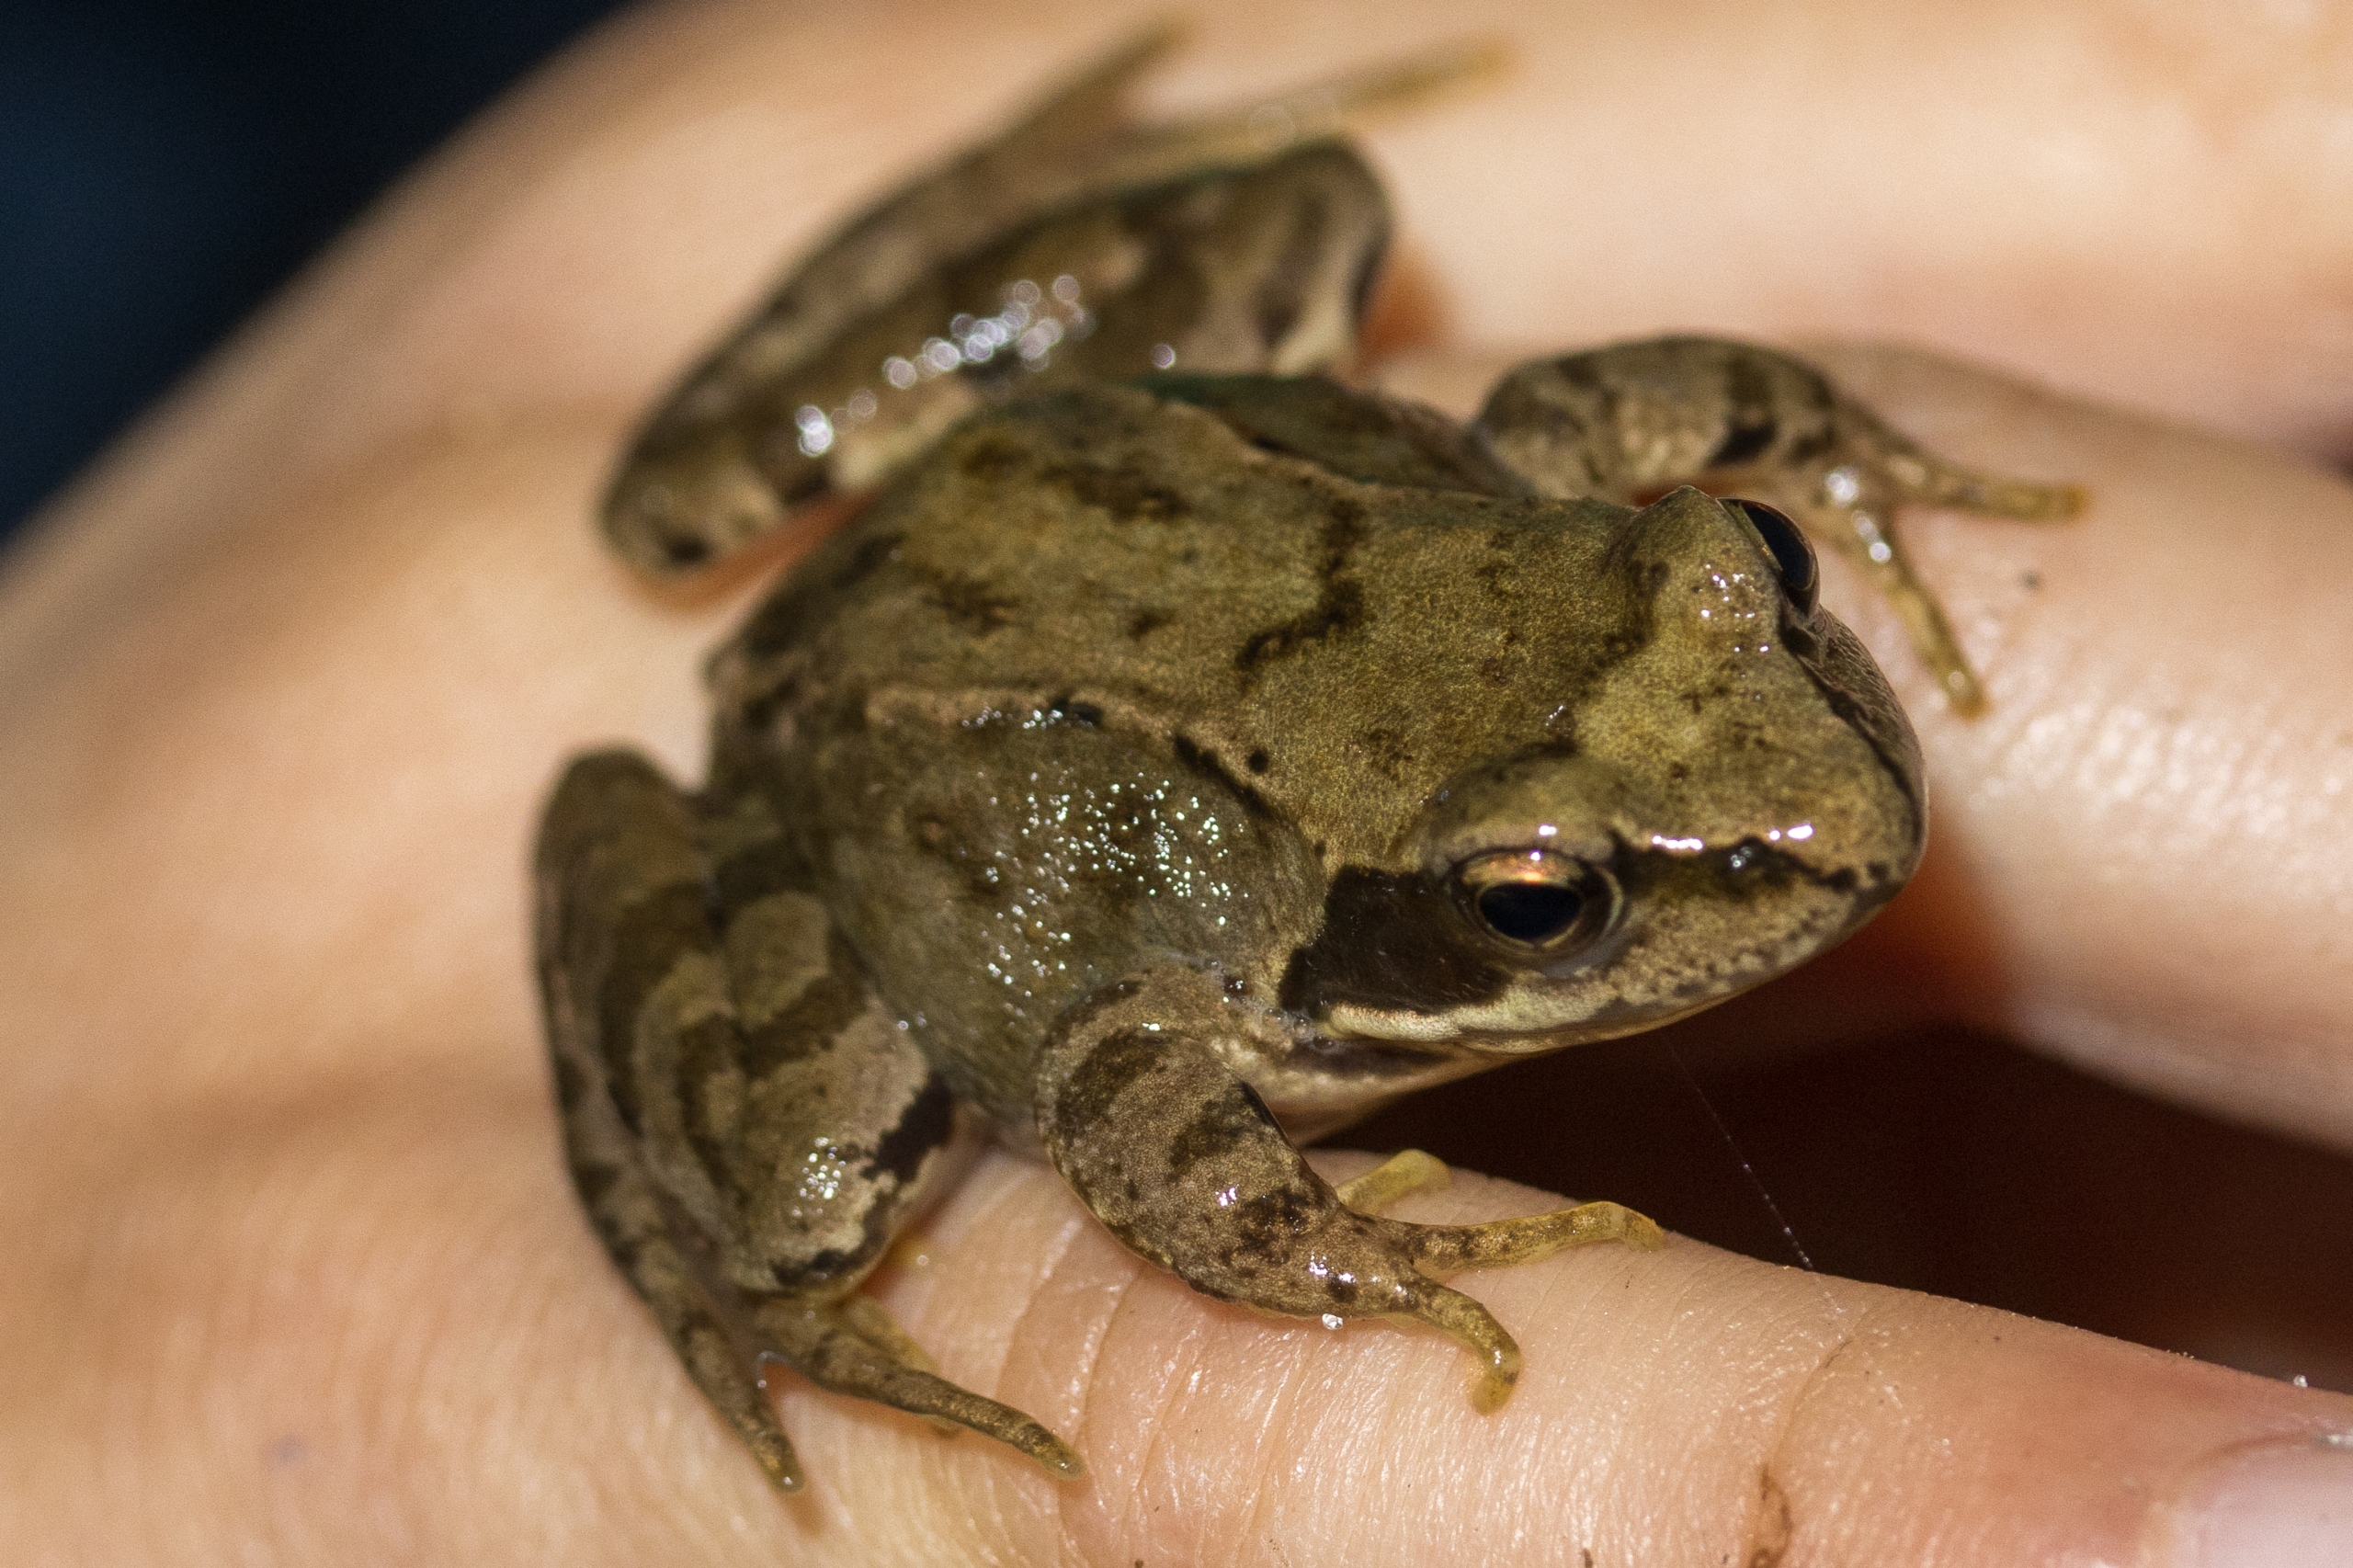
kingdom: Animalia
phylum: Chordata
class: Amphibia
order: Anura
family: Ranidae
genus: Rana
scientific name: Rana temporaria
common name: Butsnudet frø
